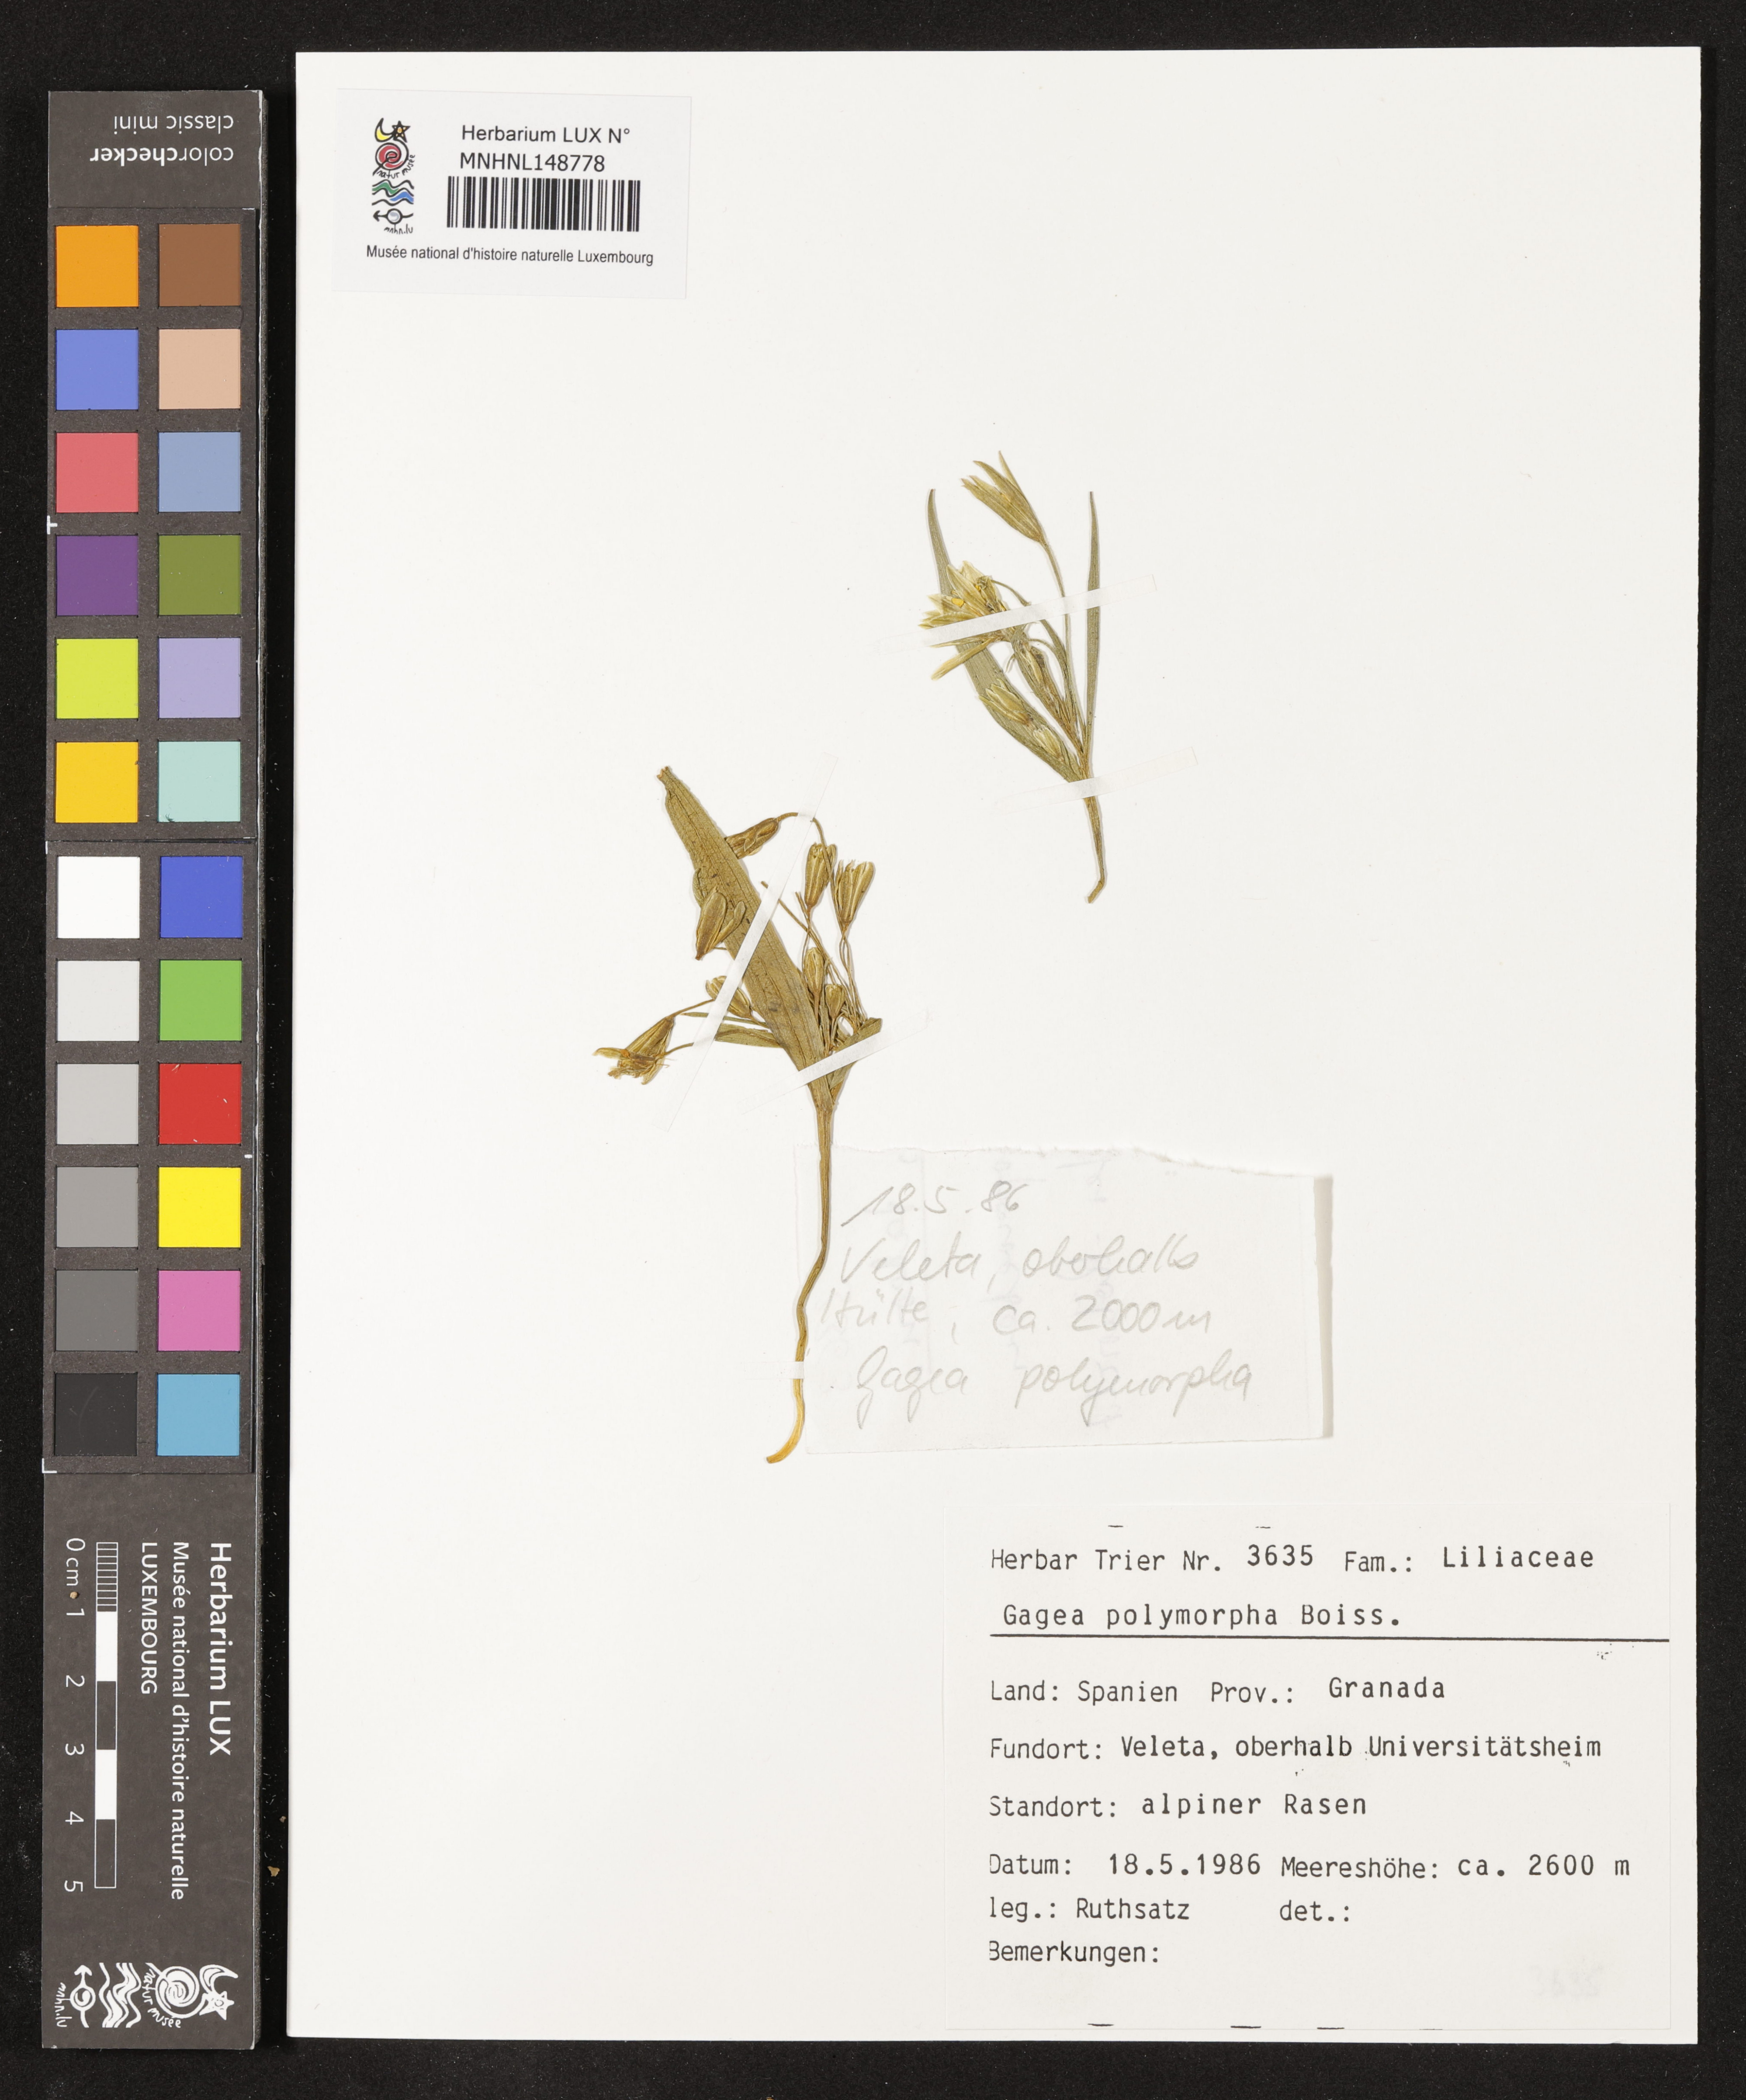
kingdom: Plantae
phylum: Tracheophyta
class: Liliopsida
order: Liliales
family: Liliaceae
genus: Gagea
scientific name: Gagea polymorpha
